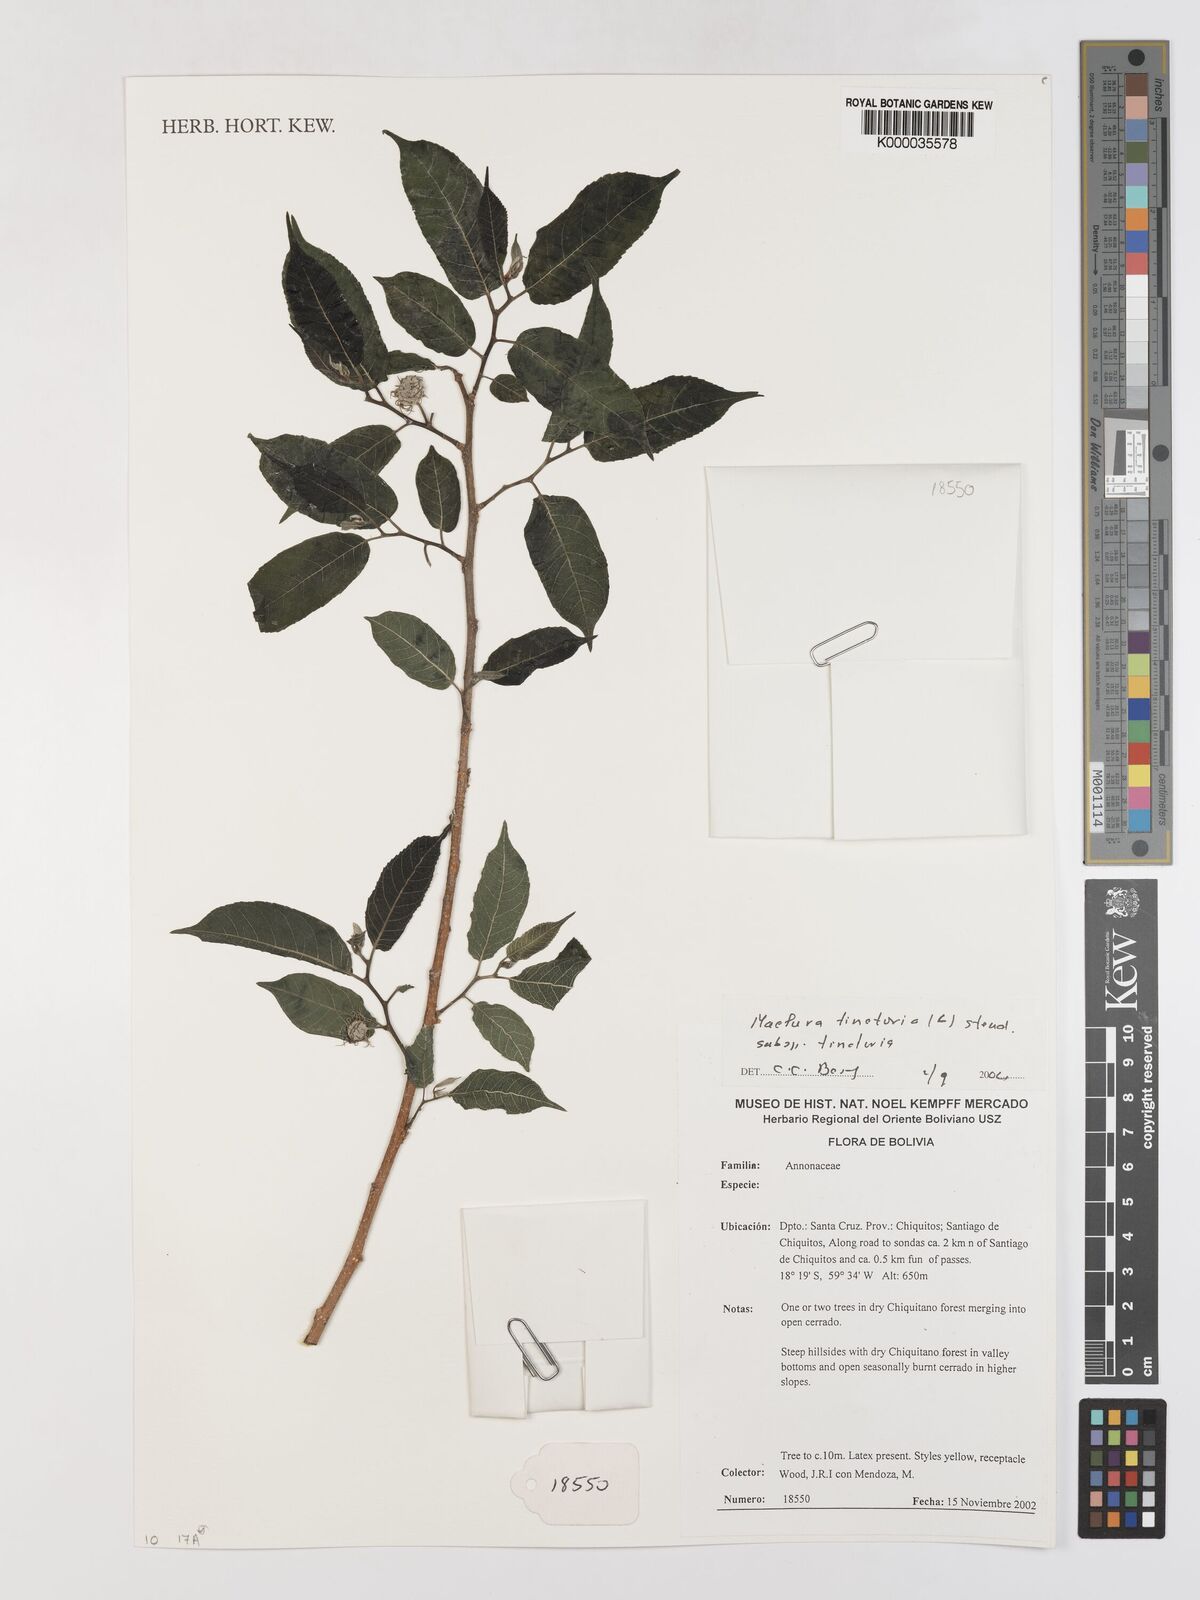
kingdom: Plantae
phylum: Tracheophyta
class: Magnoliopsida
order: Rosales
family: Moraceae
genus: Maclura
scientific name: Maclura tinctoria
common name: Old fustic
